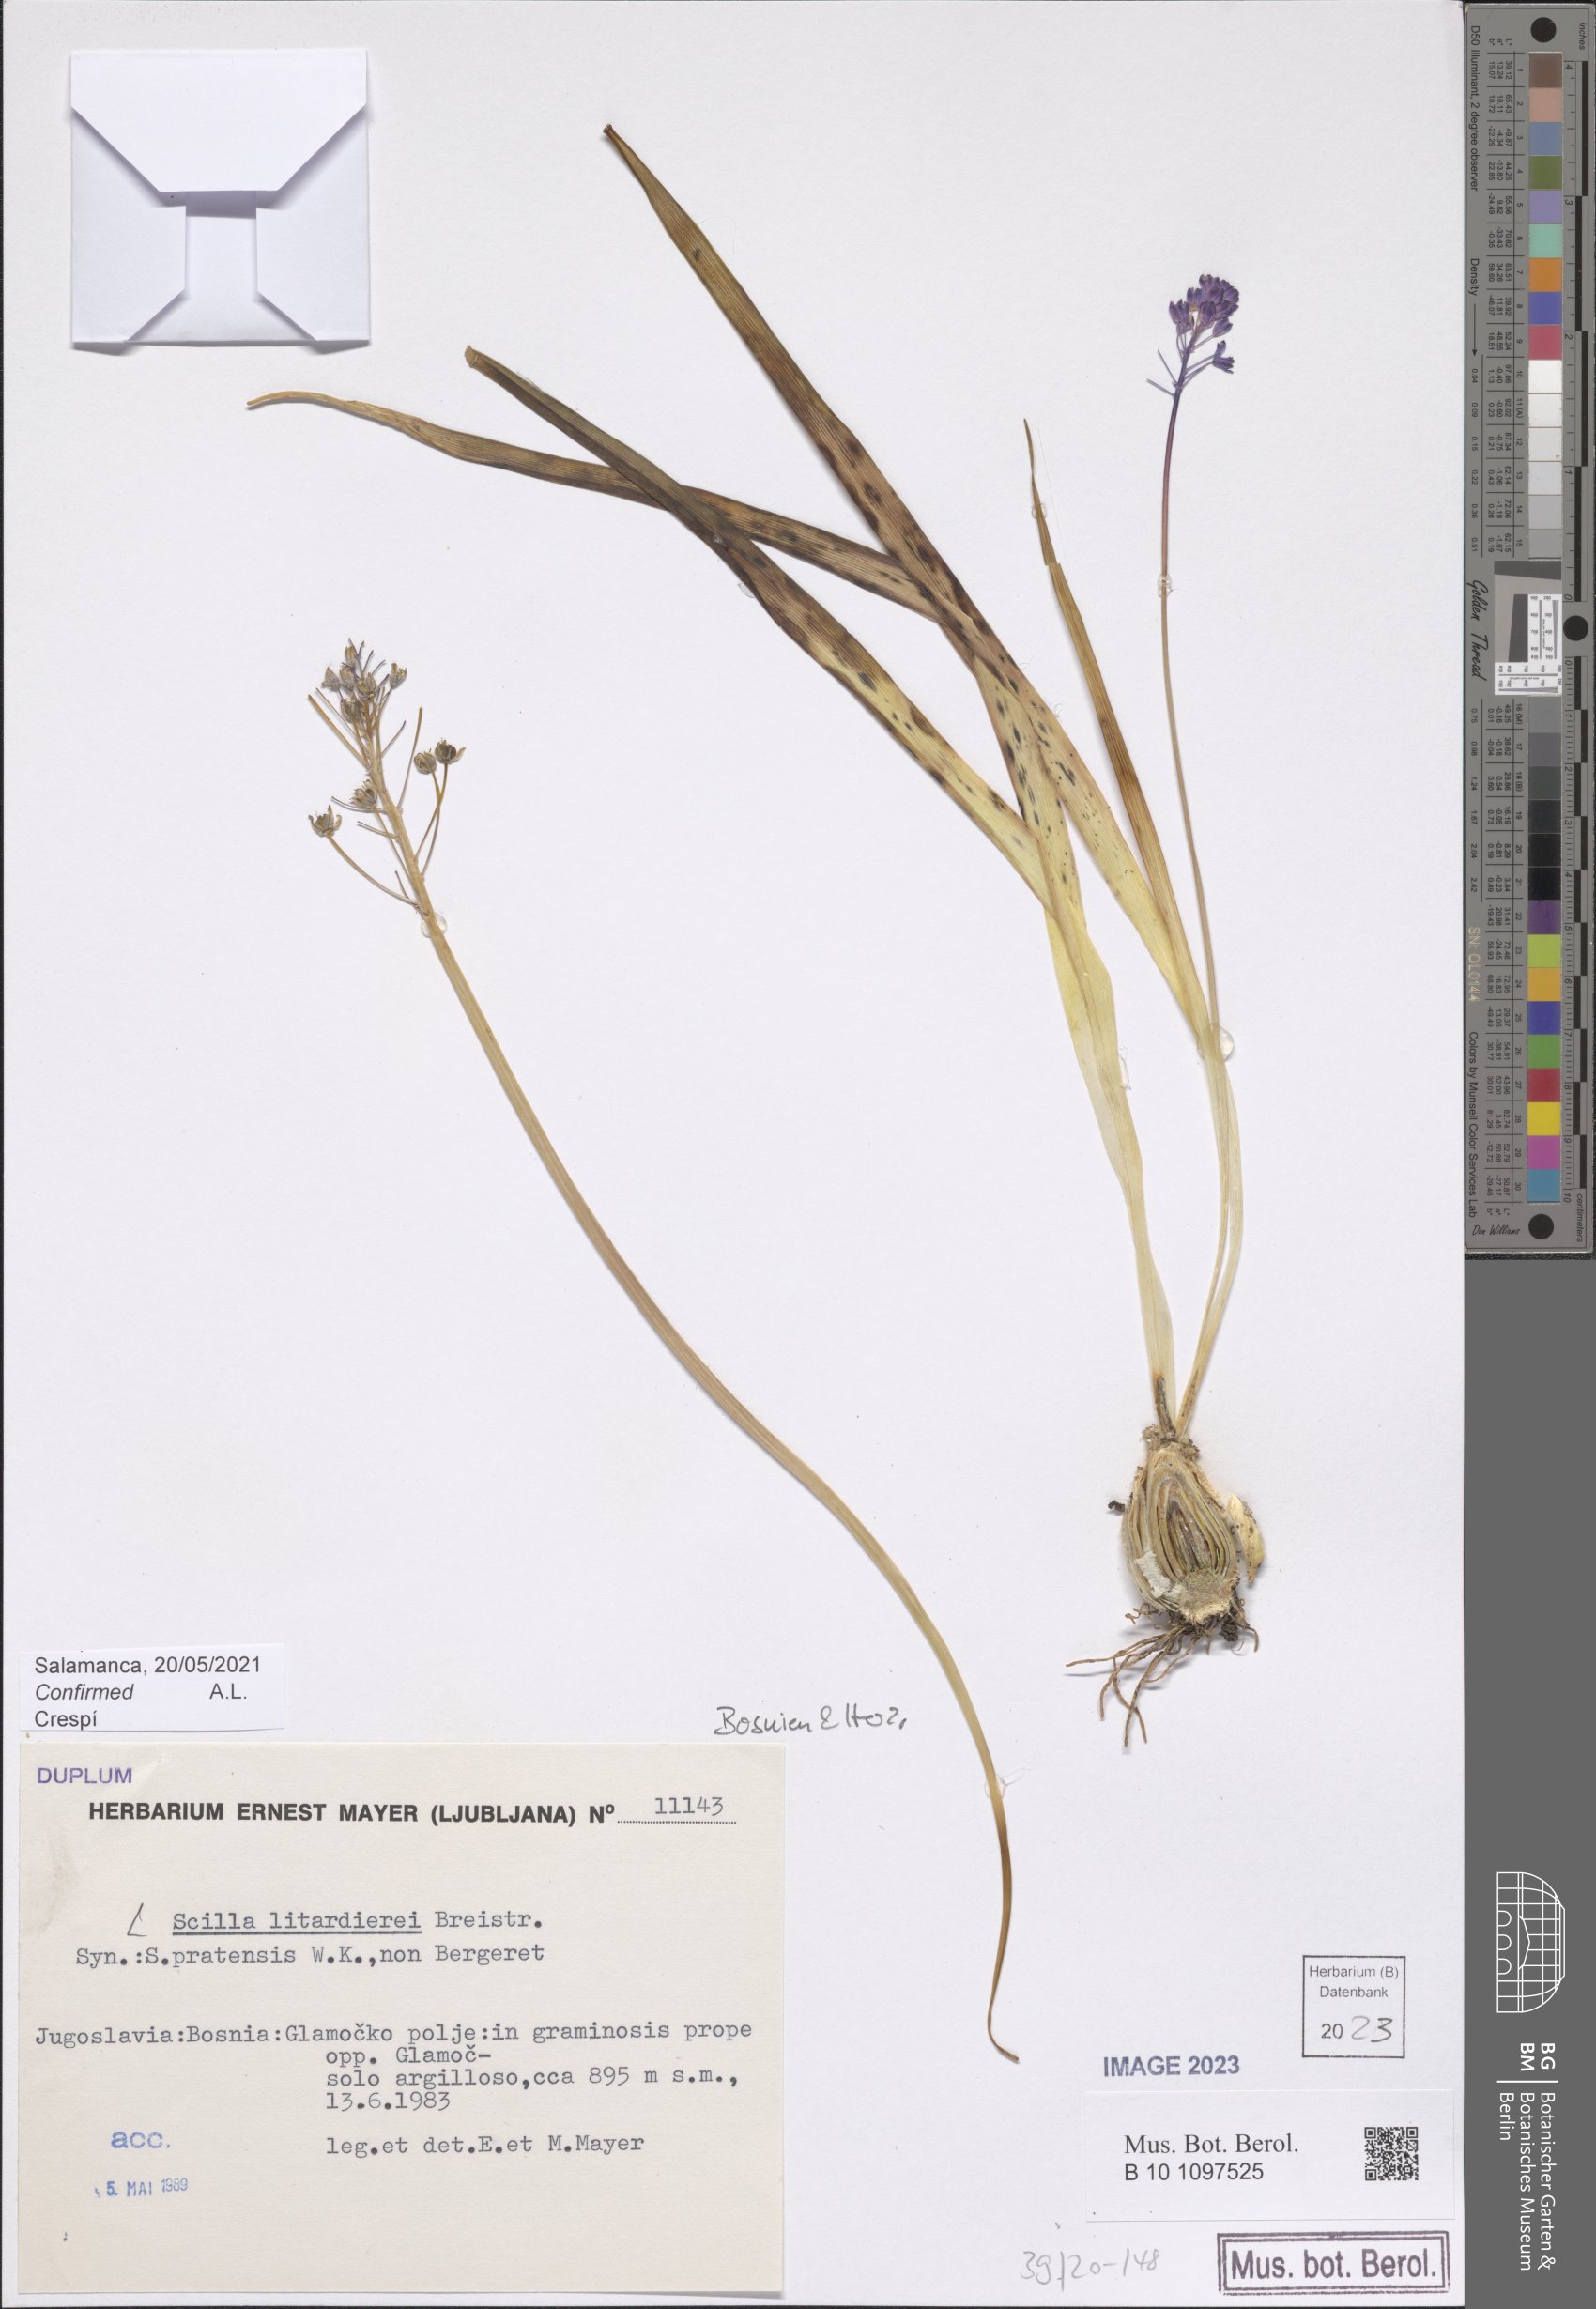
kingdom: Plantae
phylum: Tracheophyta
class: Liliopsida
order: Asparagales
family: Asparagaceae
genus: Scilla
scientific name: Scilla litardierei
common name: Amethyst meadow squill
